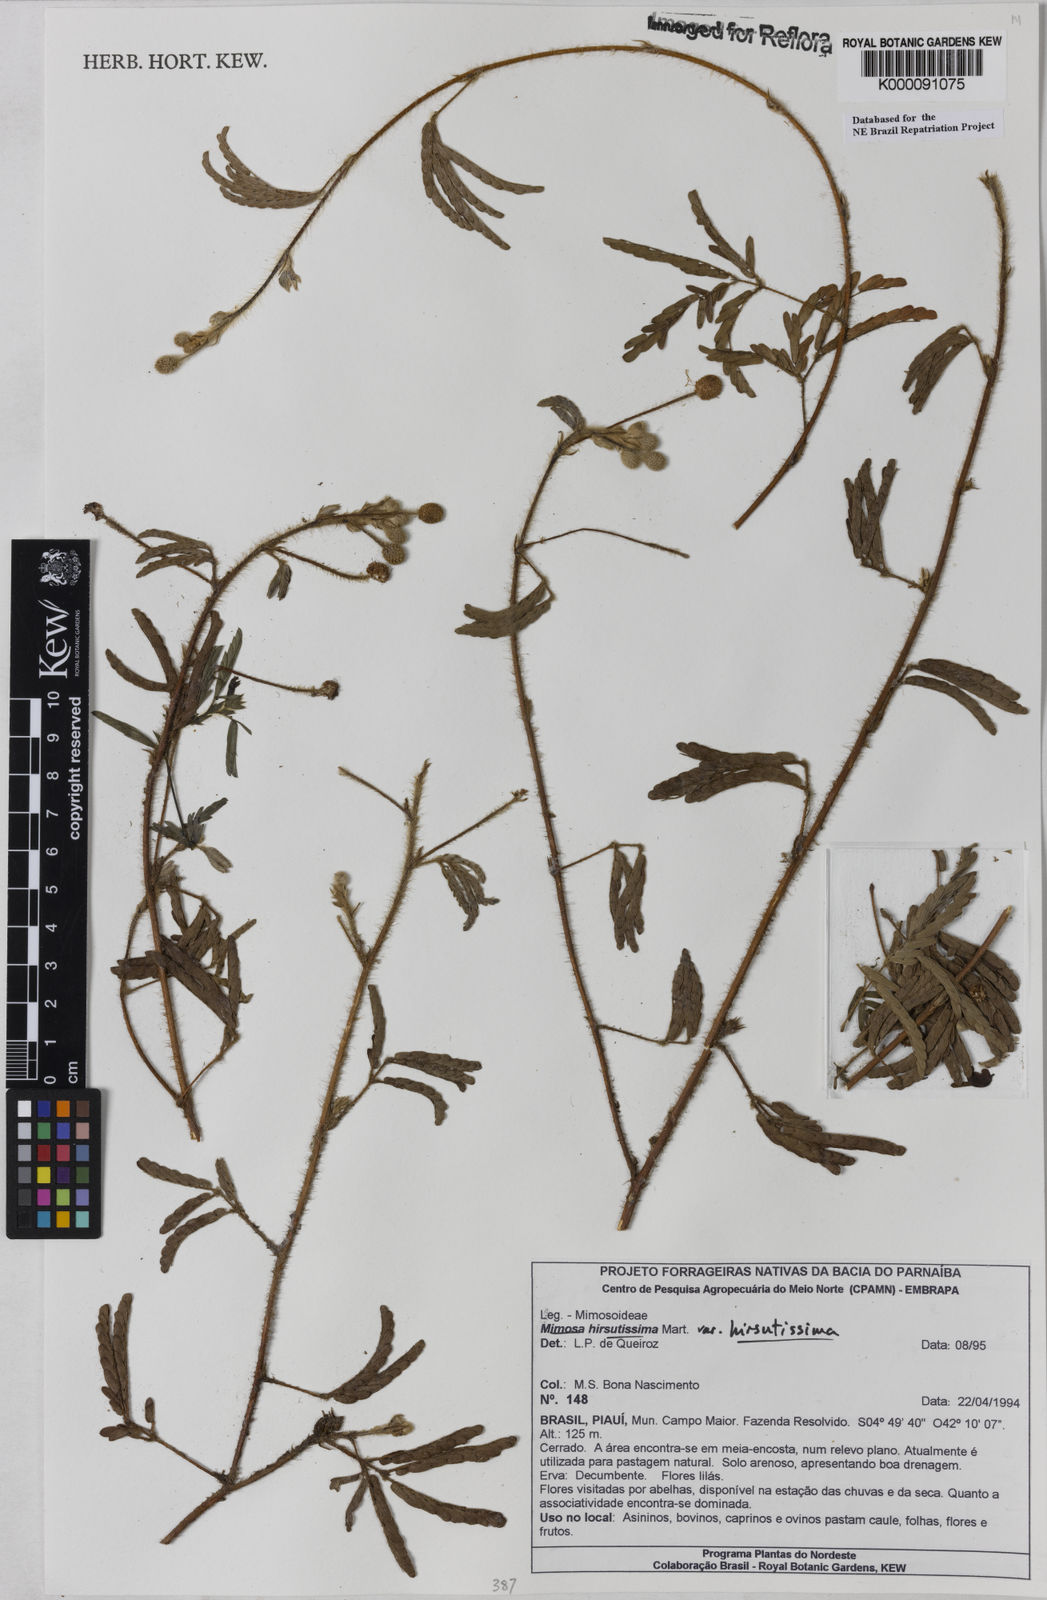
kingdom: Plantae
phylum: Tracheophyta
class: Magnoliopsida
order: Fabales
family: Fabaceae
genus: Mimosa
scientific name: Mimosa hirsutissima
